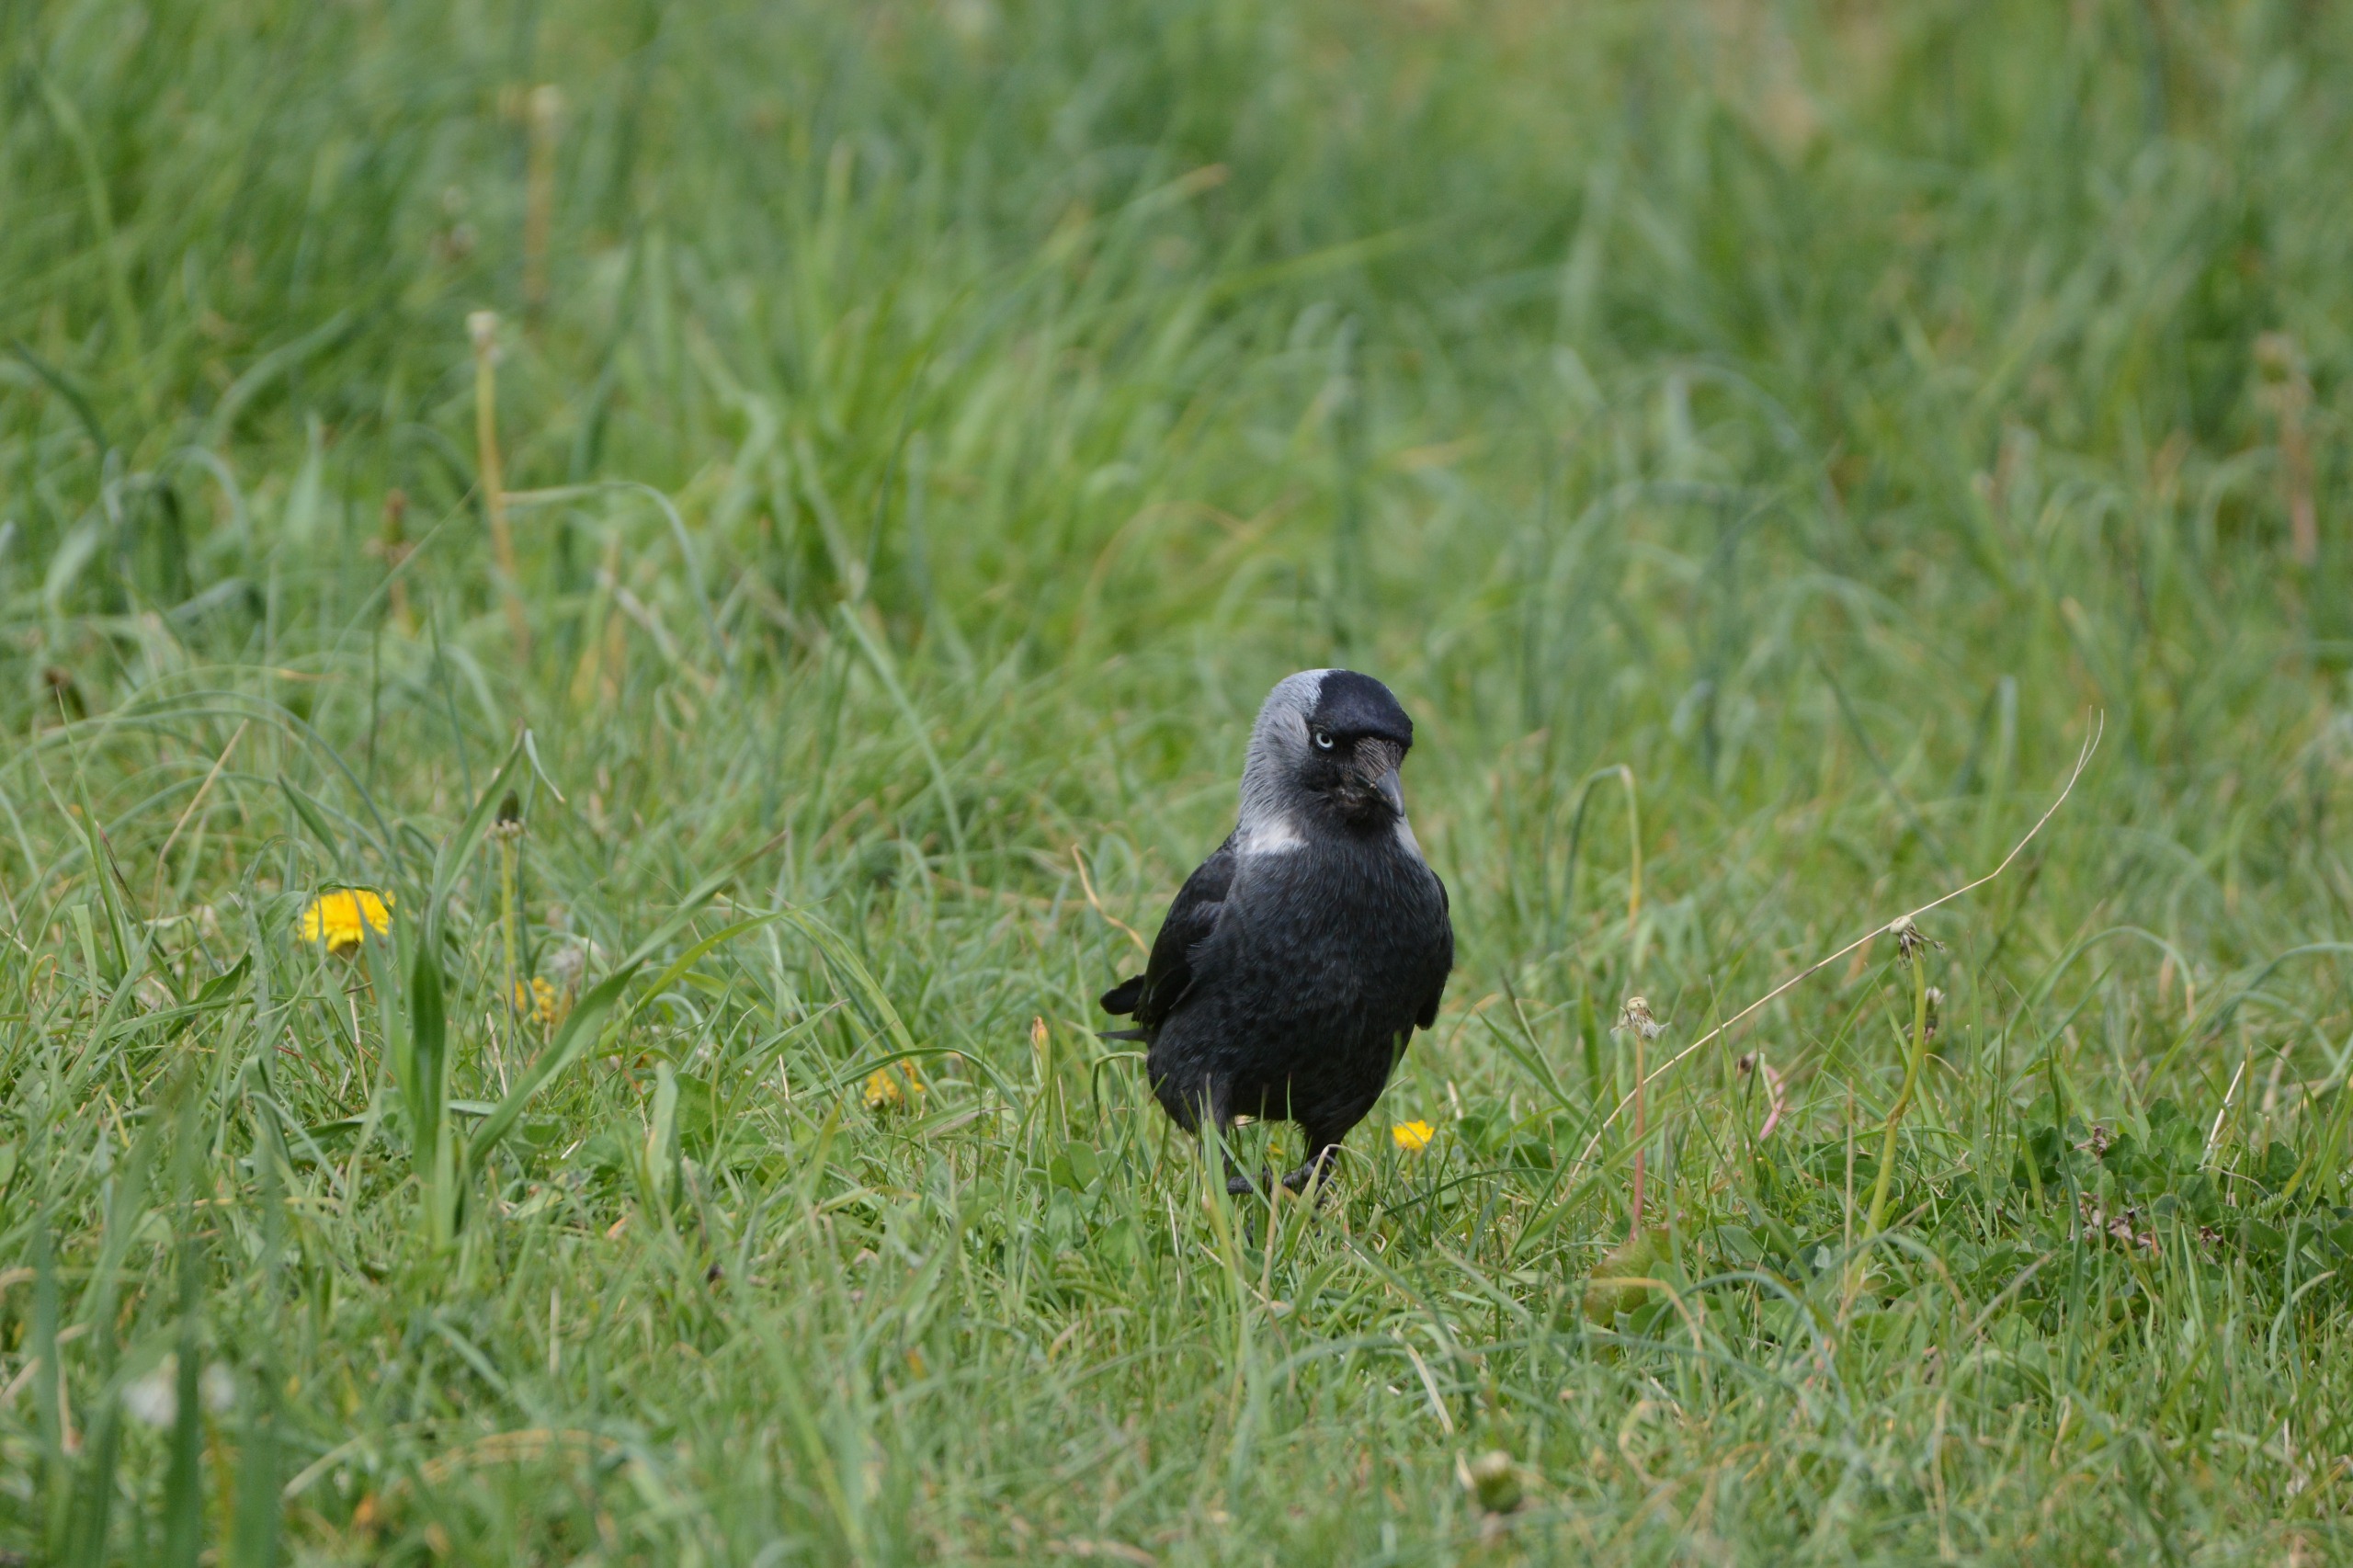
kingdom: Animalia
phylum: Chordata
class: Aves
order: Passeriformes
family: Corvidae
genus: Coloeus
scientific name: Coloeus monedula
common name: Allike
